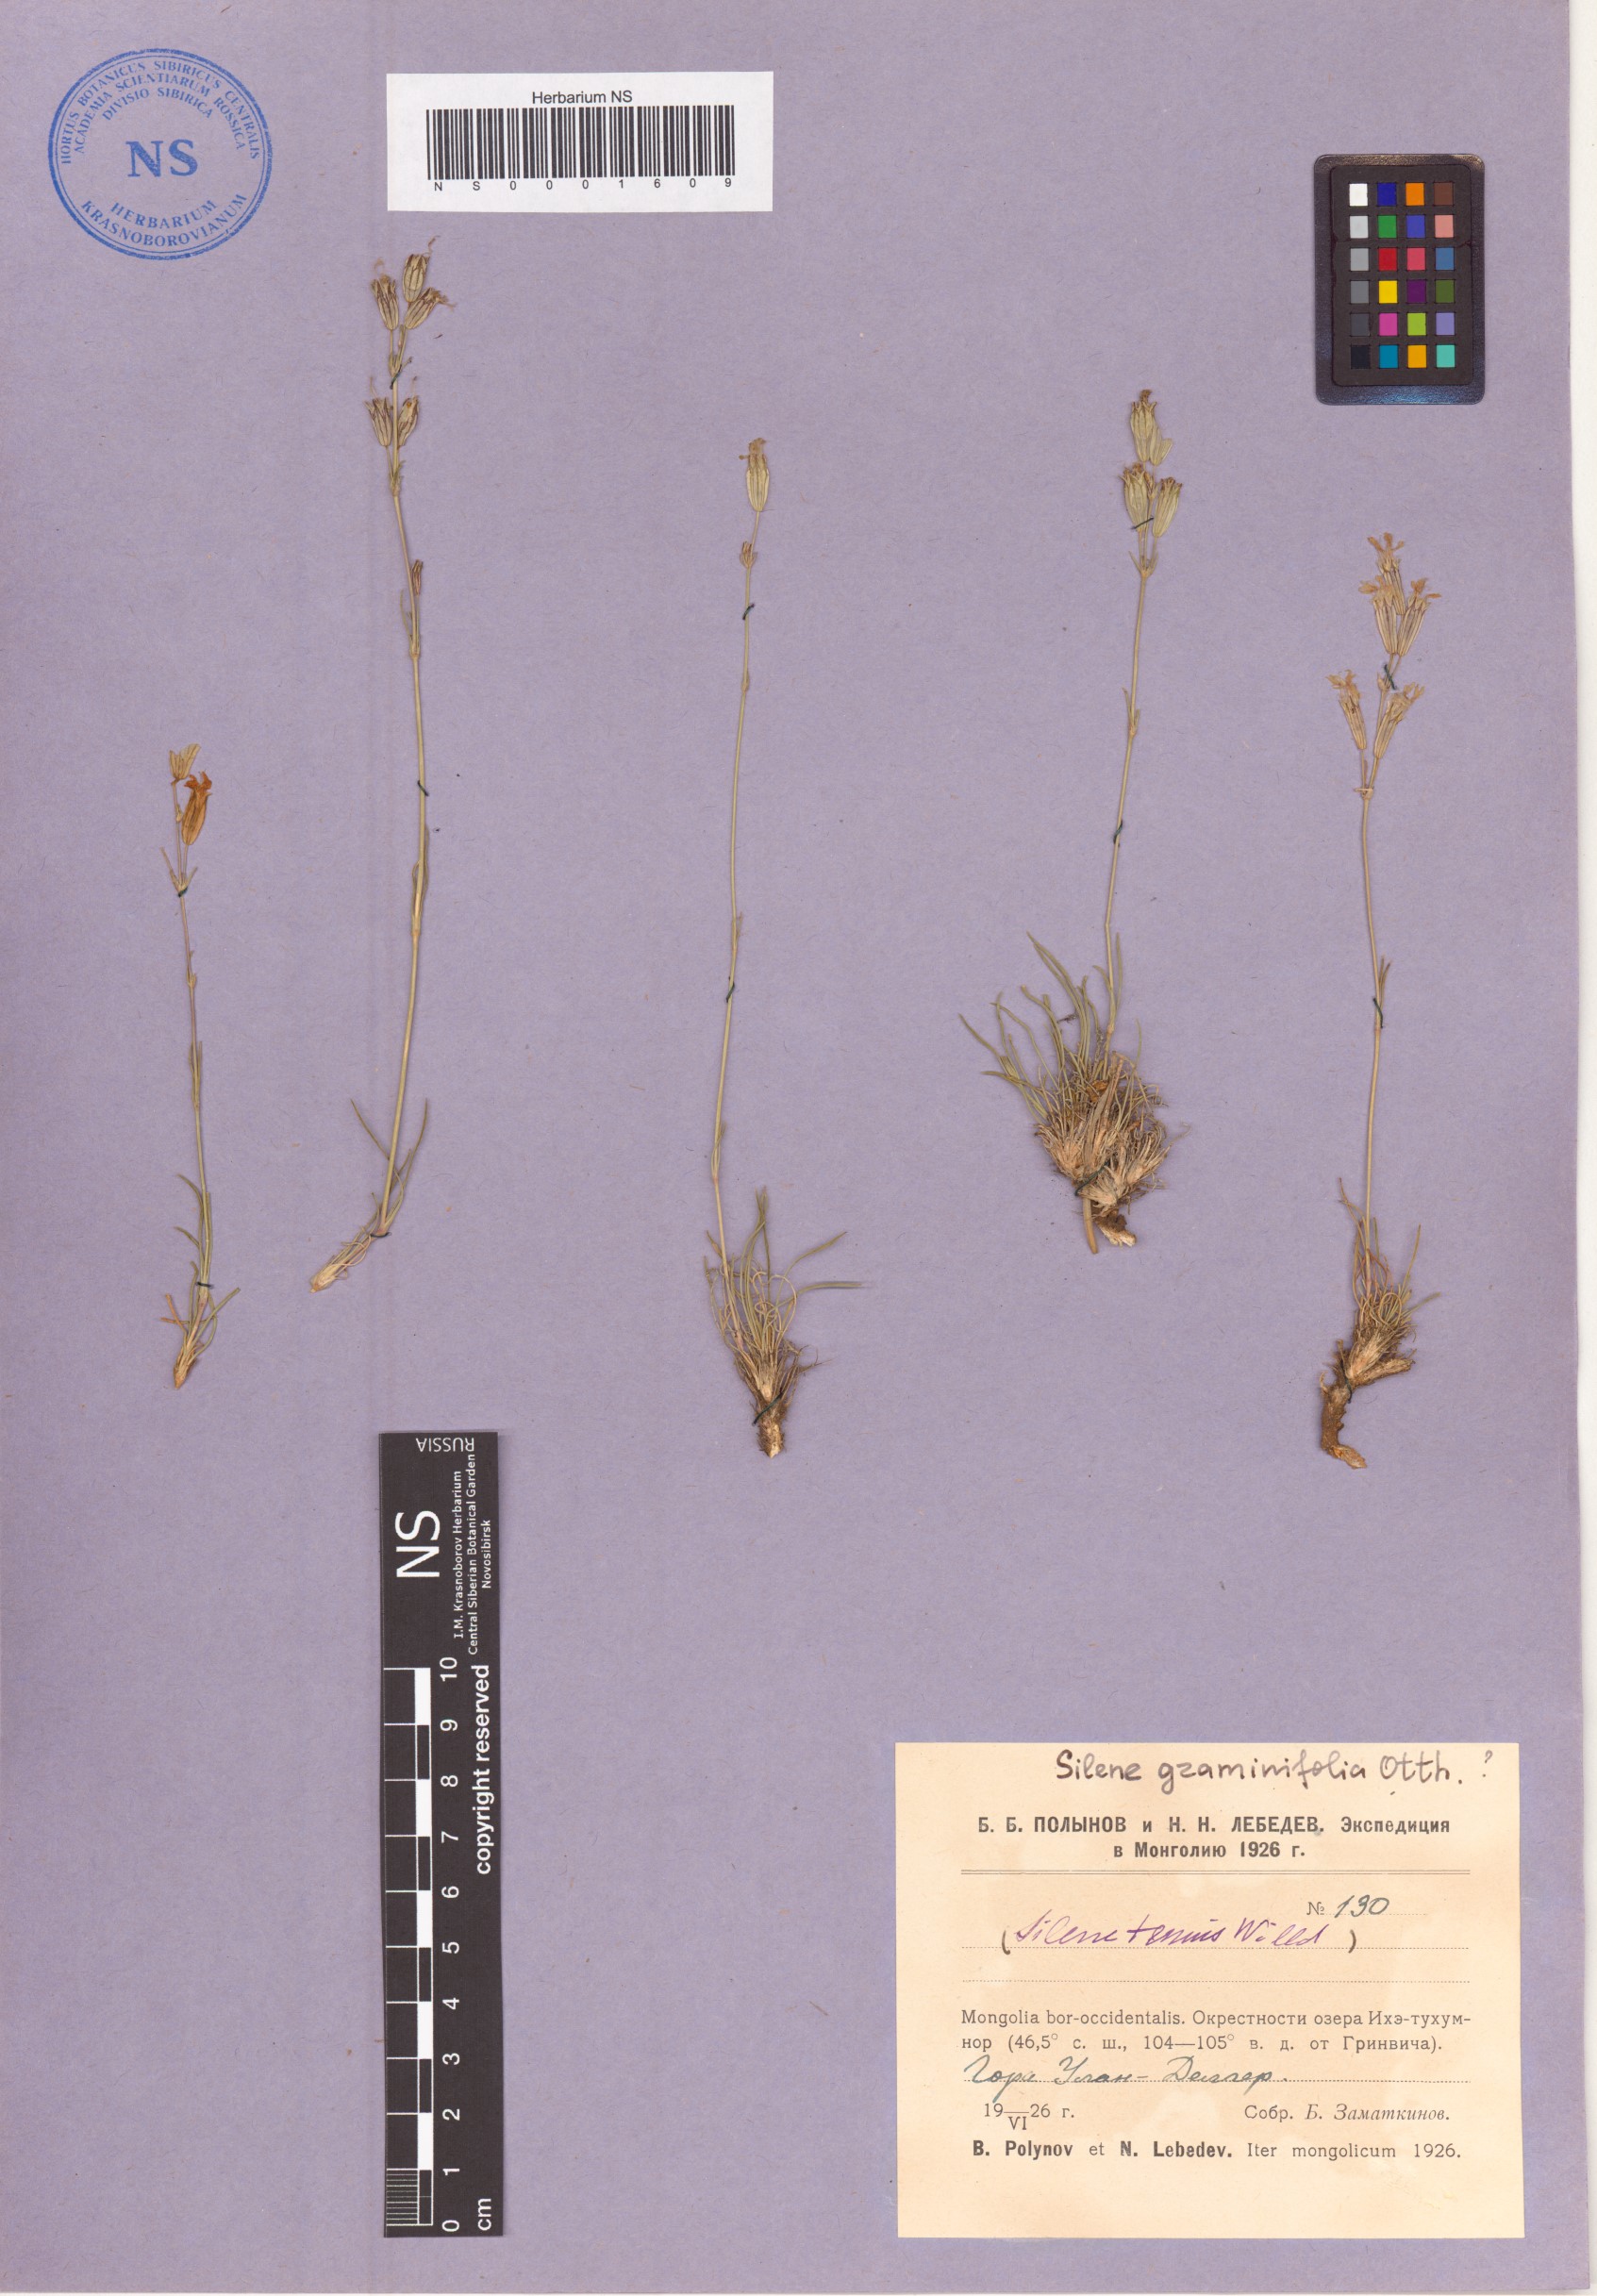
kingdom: Plantae
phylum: Tracheophyta
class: Magnoliopsida
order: Caryophyllales
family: Caryophyllaceae
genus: Silene
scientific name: Silene graminifolia
